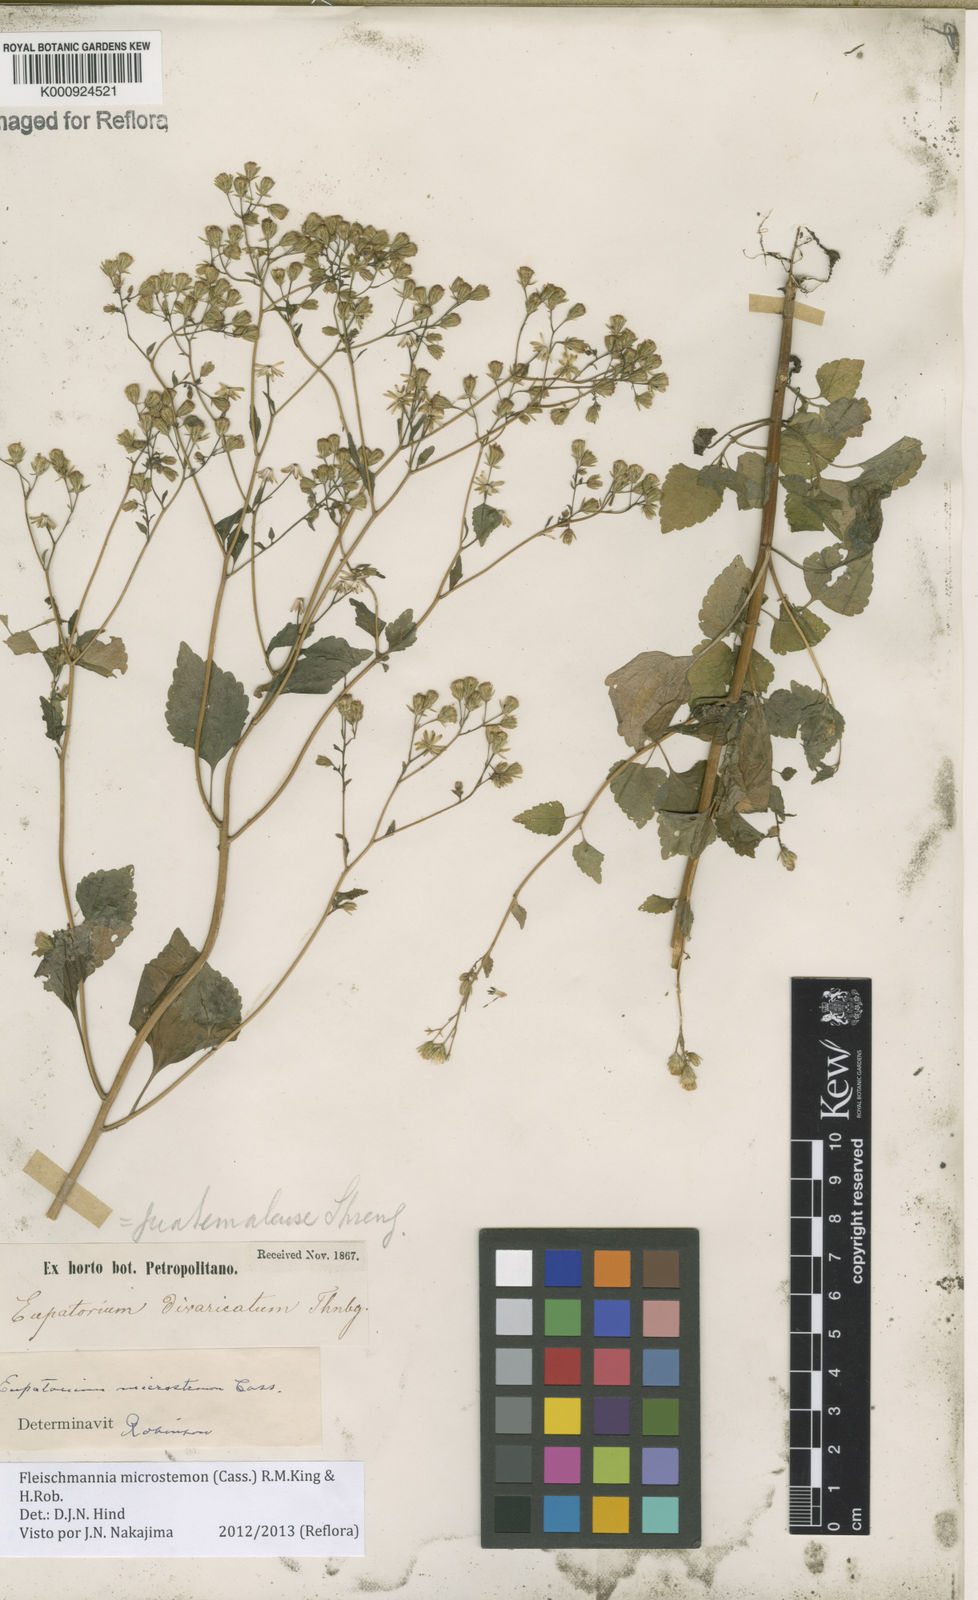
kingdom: Plantae
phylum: Tracheophyta
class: Magnoliopsida
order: Asterales
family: Asteraceae
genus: Fleischmannia
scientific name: Fleischmannia microstemon
